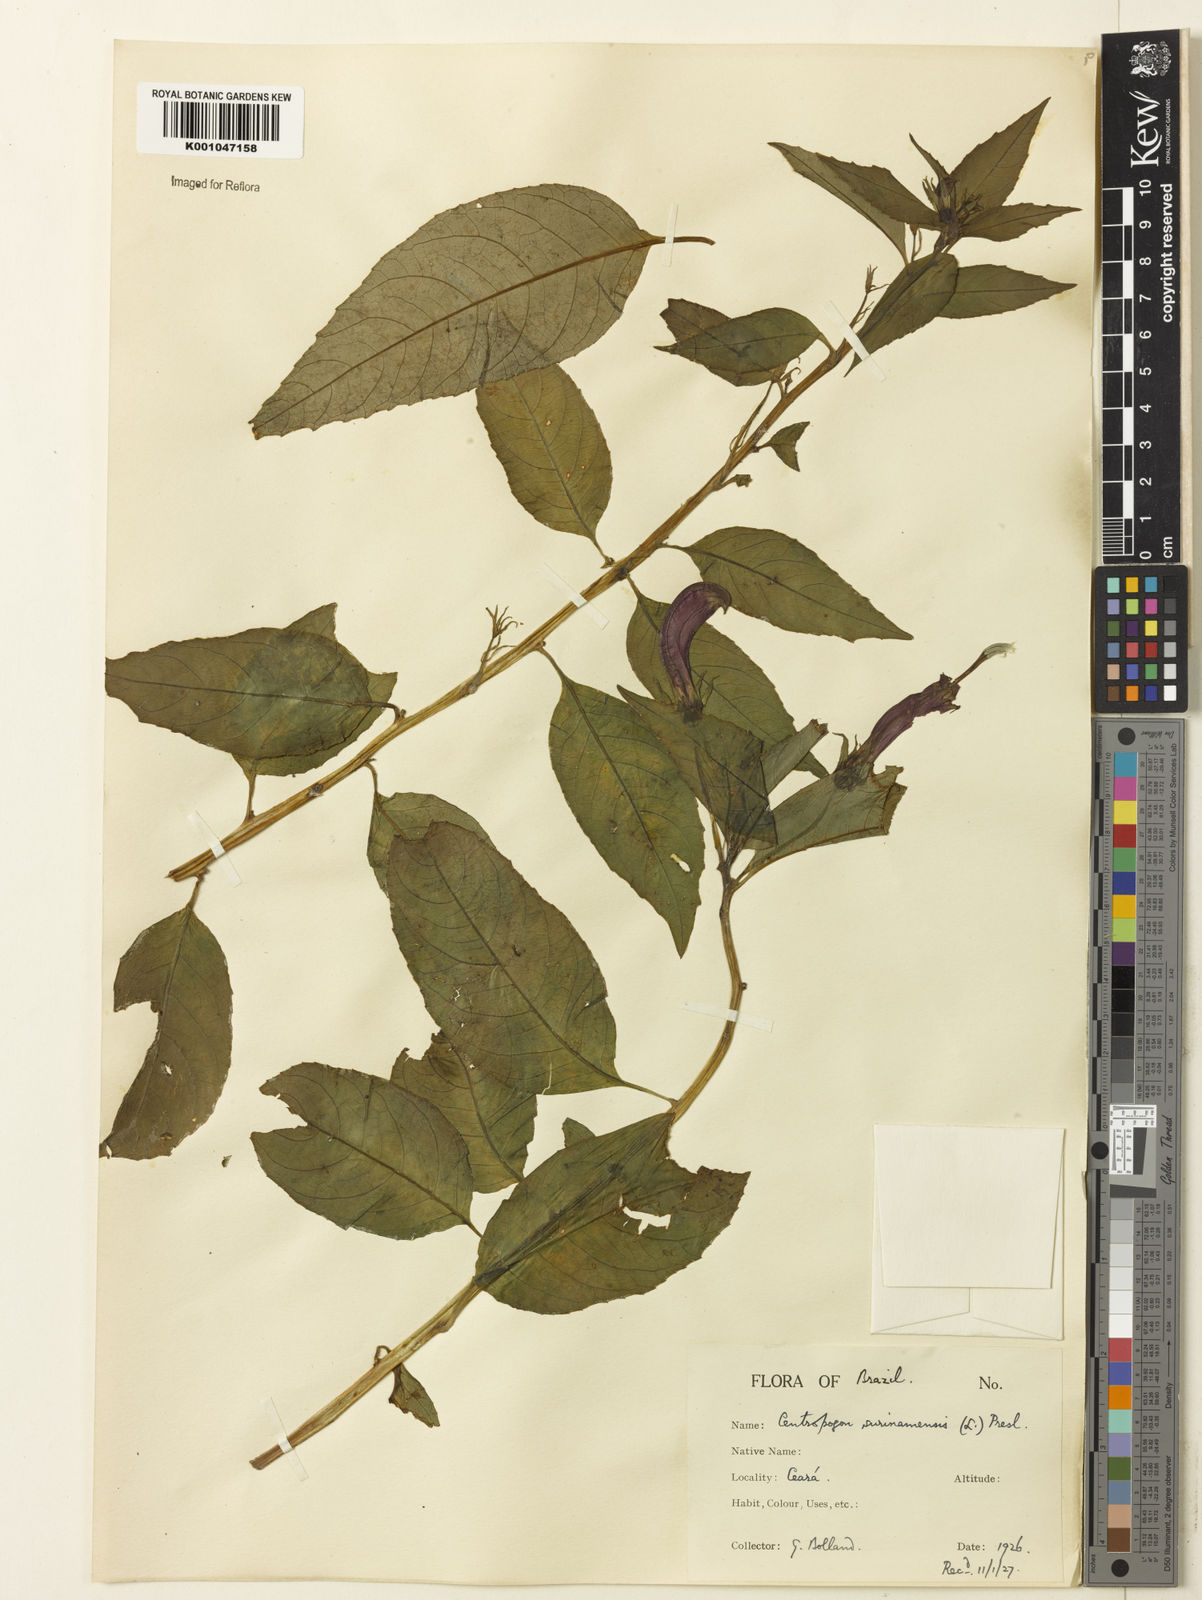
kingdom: Plantae
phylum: Tracheophyta
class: Magnoliopsida
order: Asterales
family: Campanulaceae
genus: Centropogon
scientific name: Centropogon cornutus
